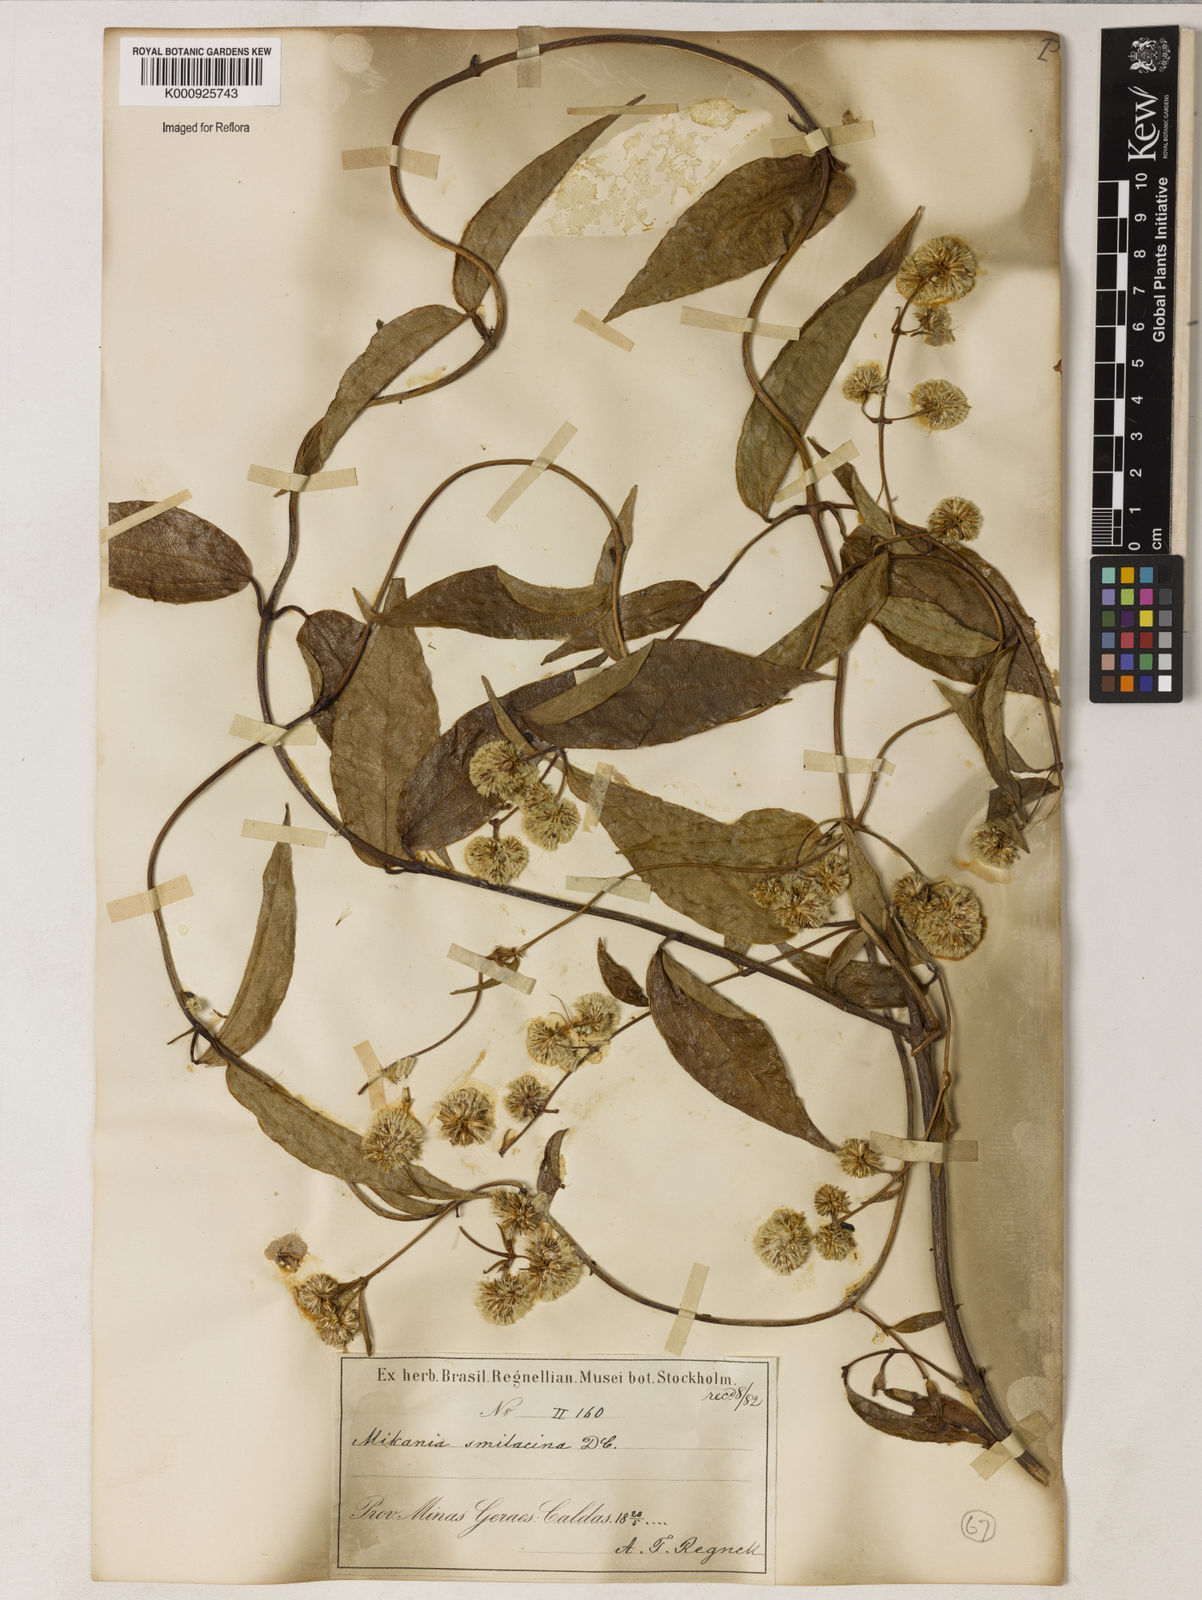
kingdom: Plantae
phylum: Tracheophyta
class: Magnoliopsida
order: Asterales
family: Asteraceae
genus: Mikania
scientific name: Mikania smilacina
